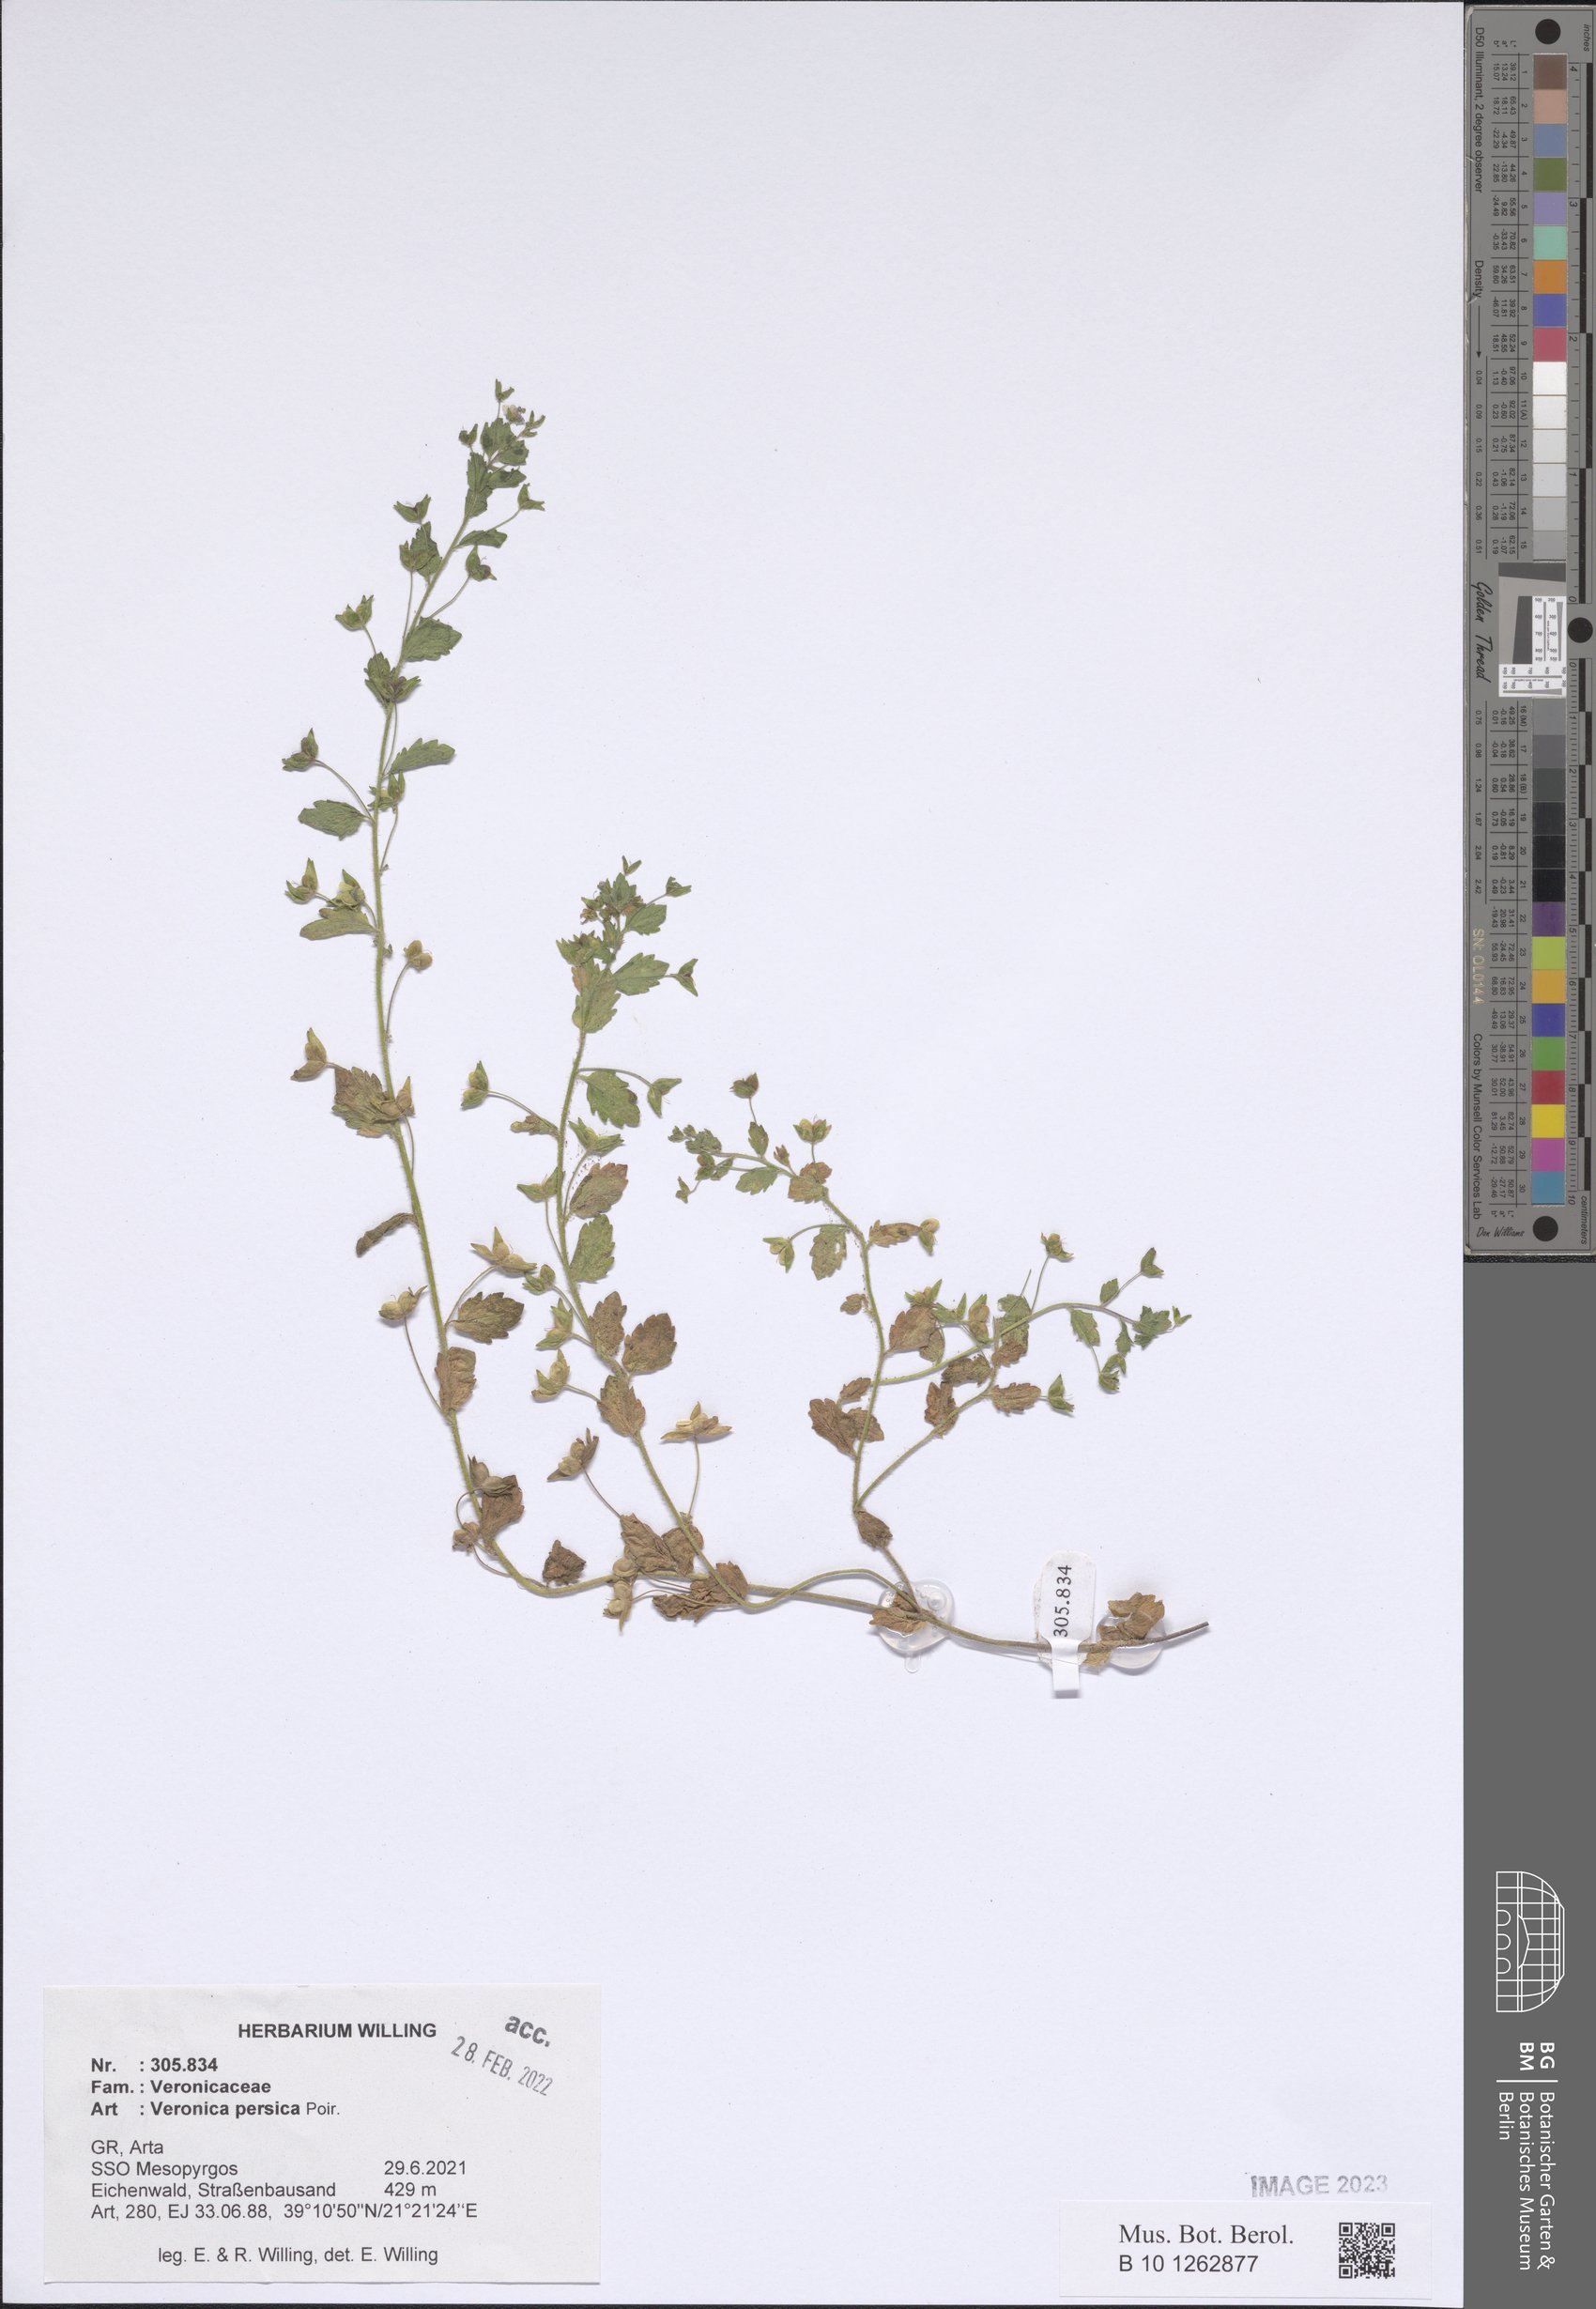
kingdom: Plantae
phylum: Tracheophyta
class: Magnoliopsida
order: Lamiales
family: Plantaginaceae
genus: Veronica
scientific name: Veronica persica
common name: Common field-speedwell
